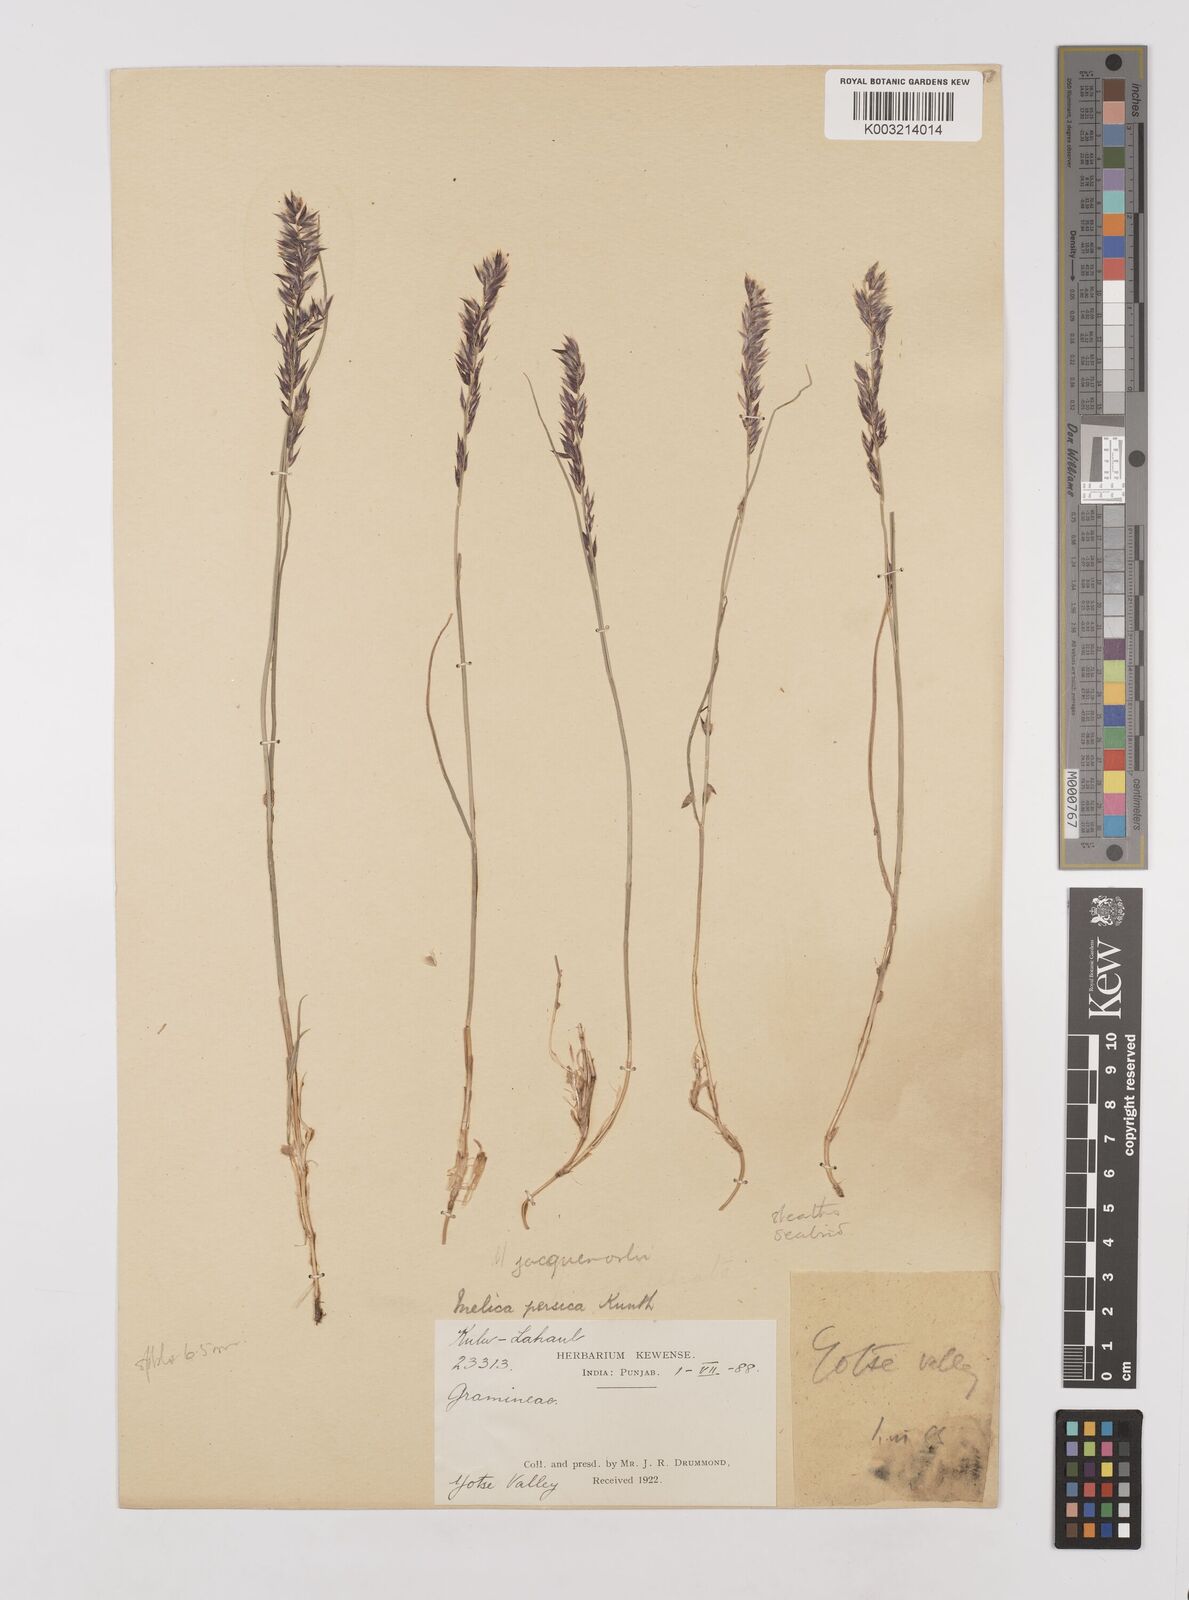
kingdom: Plantae
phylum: Tracheophyta
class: Liliopsida
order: Poales
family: Poaceae
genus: Melica
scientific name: Melica persica
